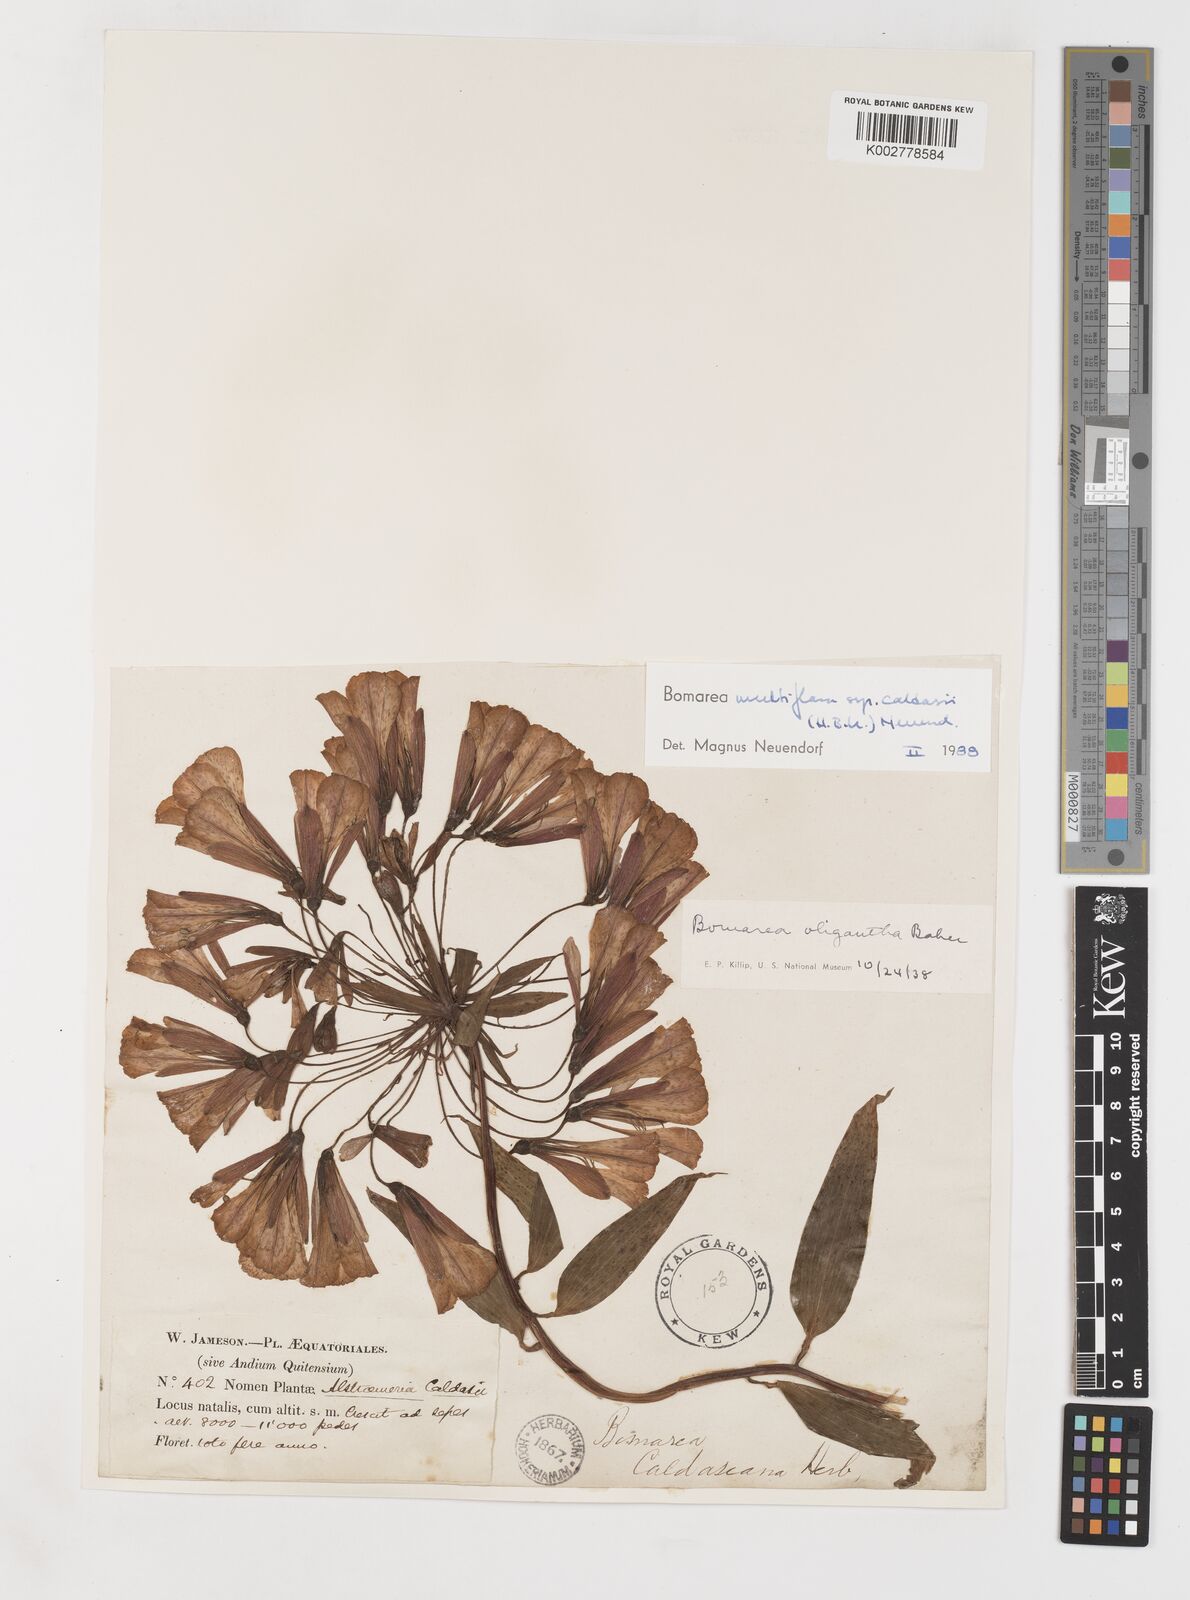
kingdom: Plantae
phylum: Tracheophyta
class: Liliopsida
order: Liliales
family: Alstroemeriaceae
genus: Bomarea
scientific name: Bomarea multiflora
